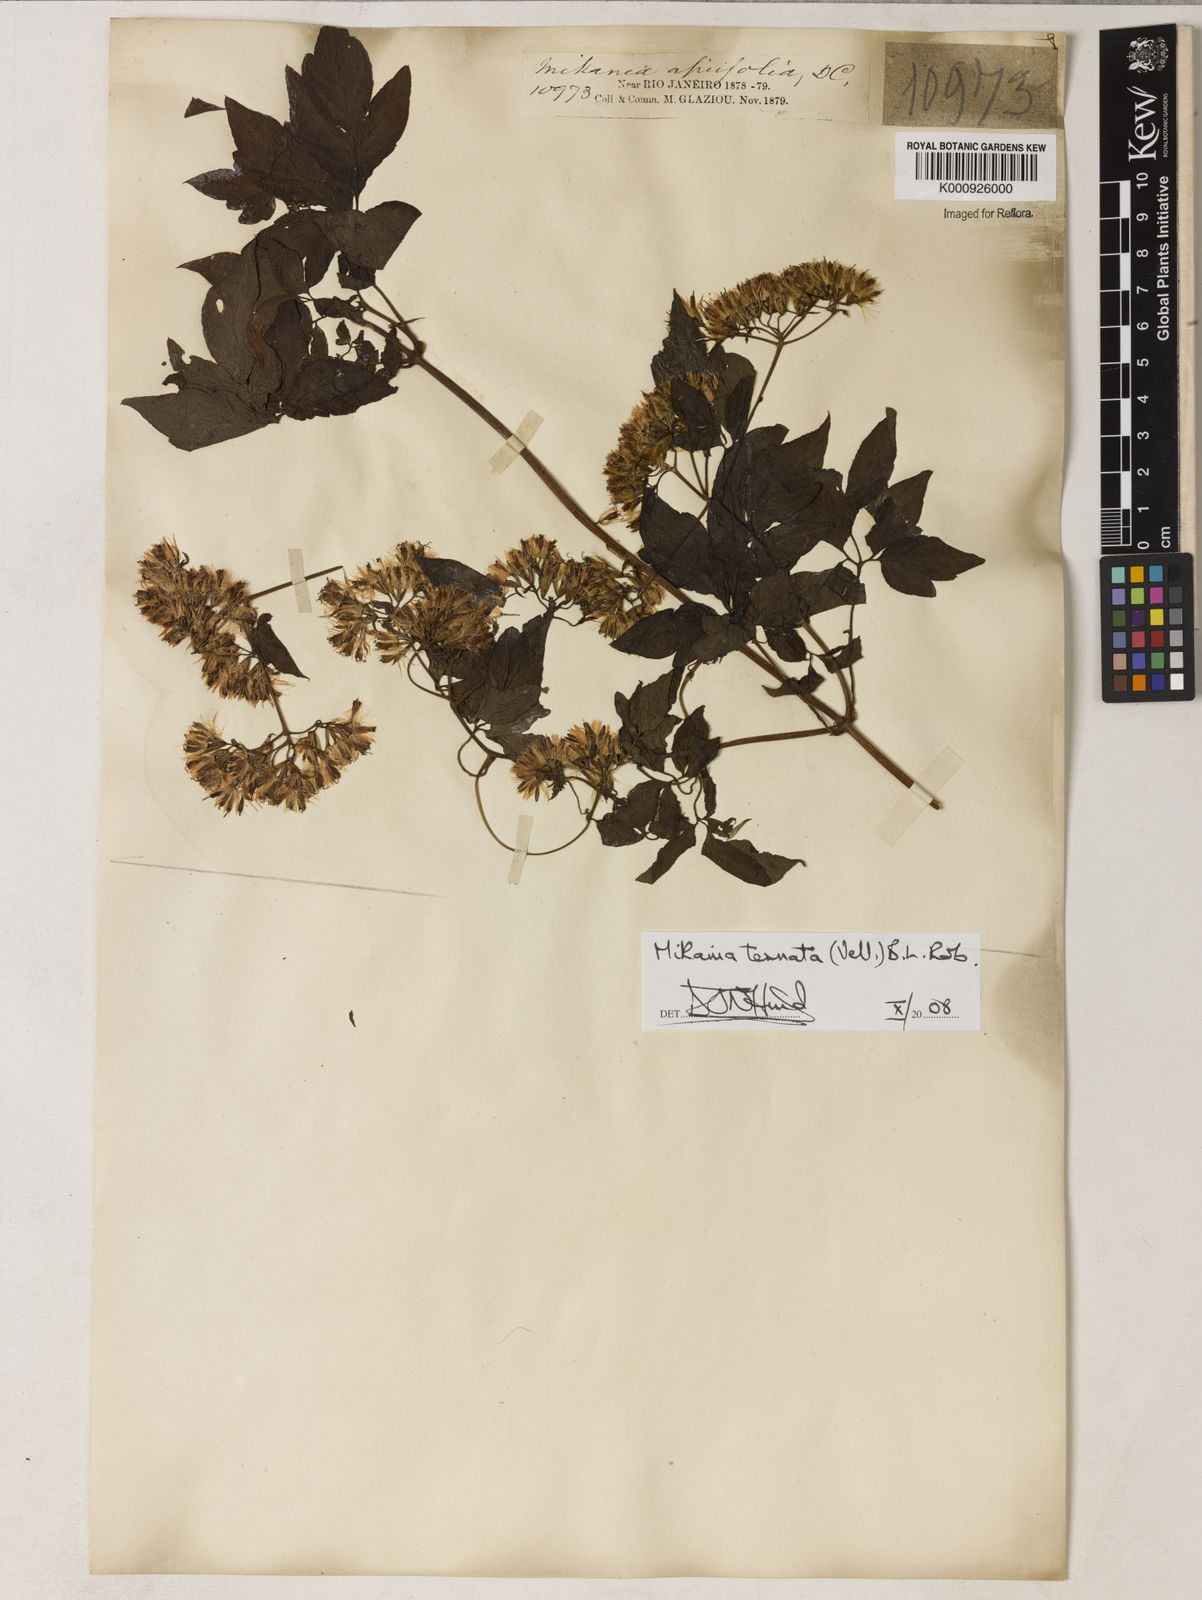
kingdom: Plantae
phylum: Tracheophyta
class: Magnoliopsida
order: Asterales
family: Asteraceae
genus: Mikania
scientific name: Mikania ternata
